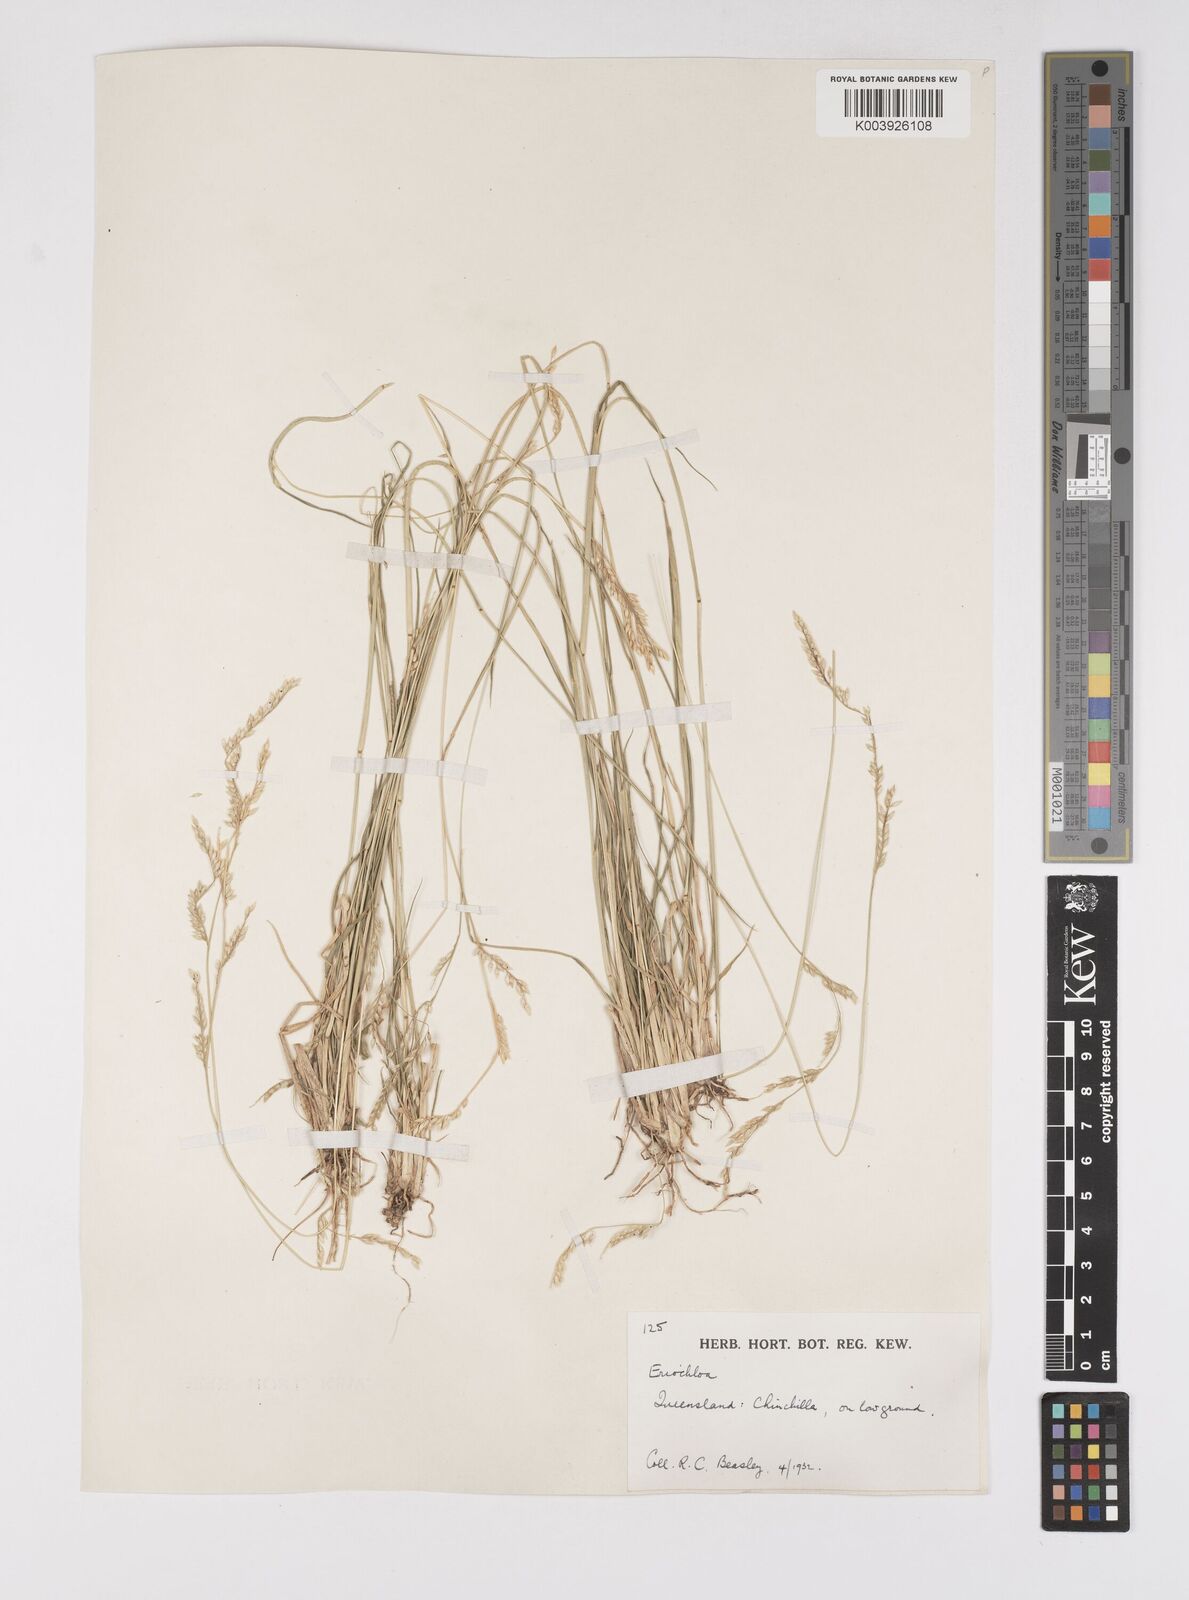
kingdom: Plantae
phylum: Tracheophyta
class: Liliopsida
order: Poales
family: Poaceae
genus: Eriochloa
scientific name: Eriochloa
